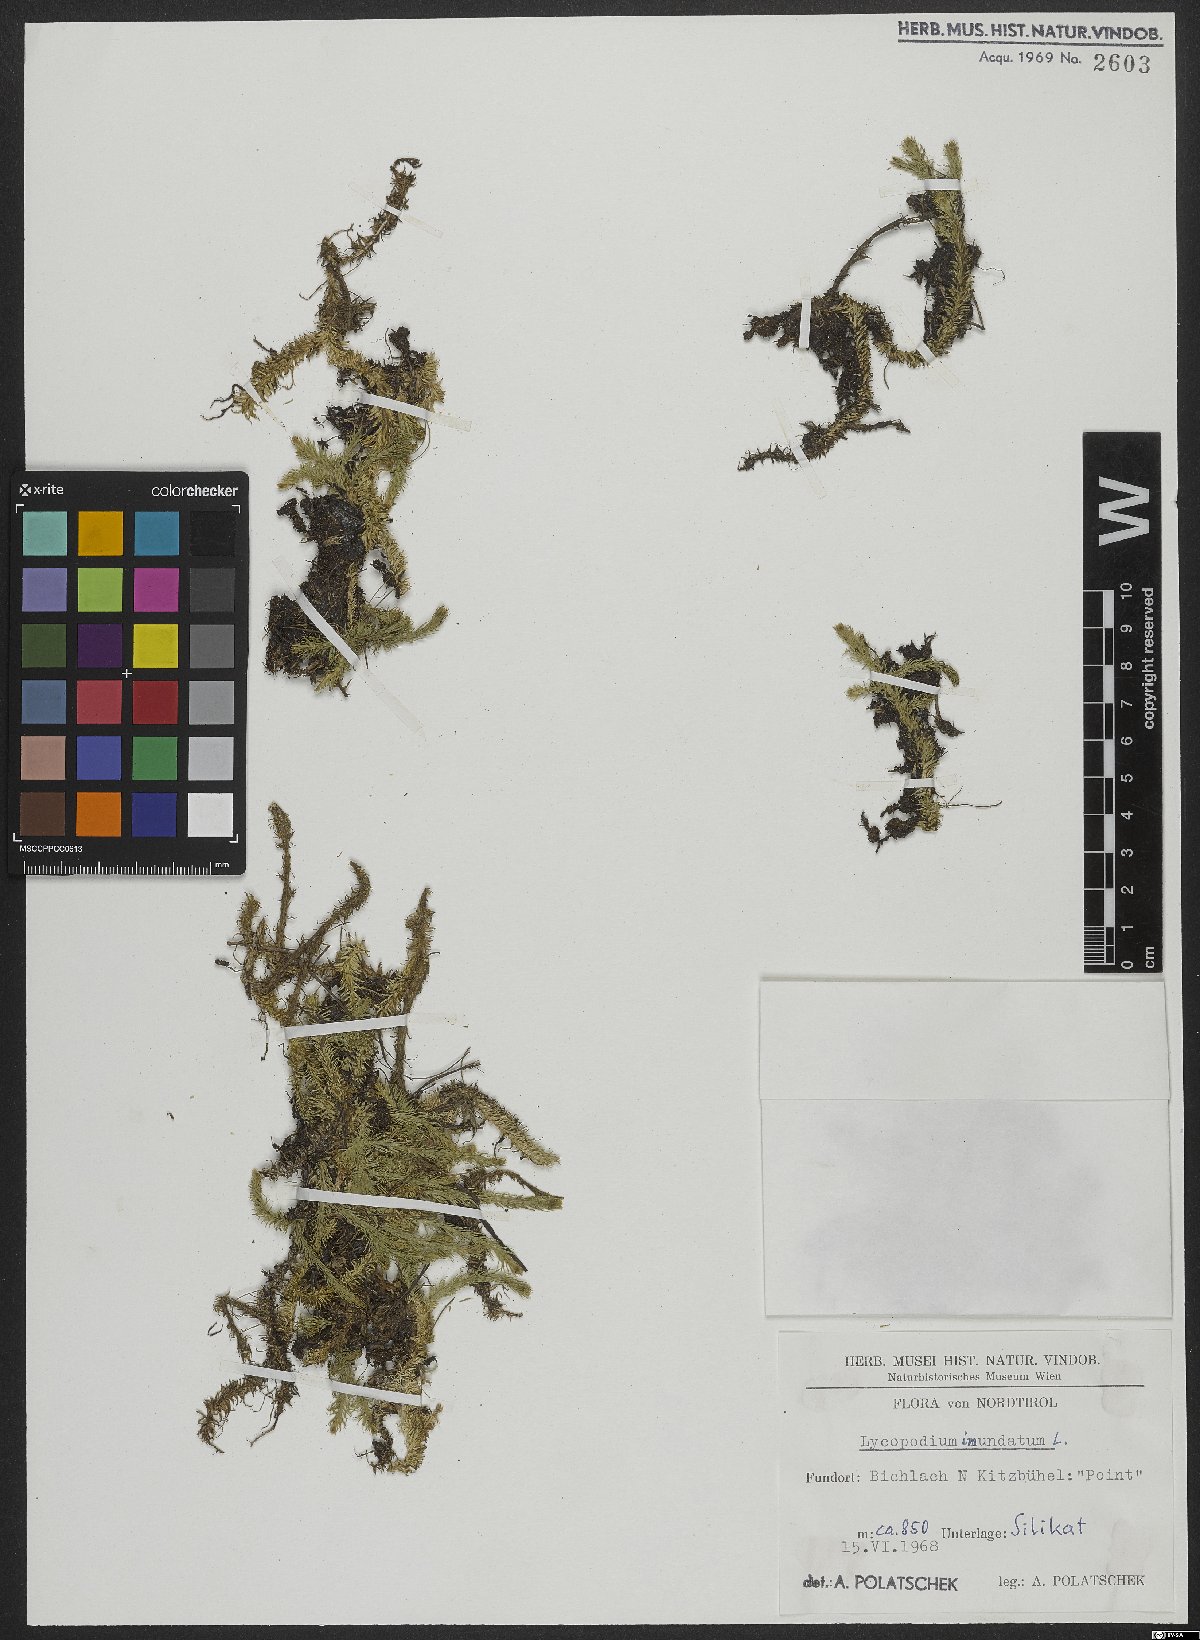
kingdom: Plantae
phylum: Tracheophyta
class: Lycopodiopsida
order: Lycopodiales
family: Lycopodiaceae
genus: Lycopodiella
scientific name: Lycopodiella inundata
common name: Marsh clubmoss
